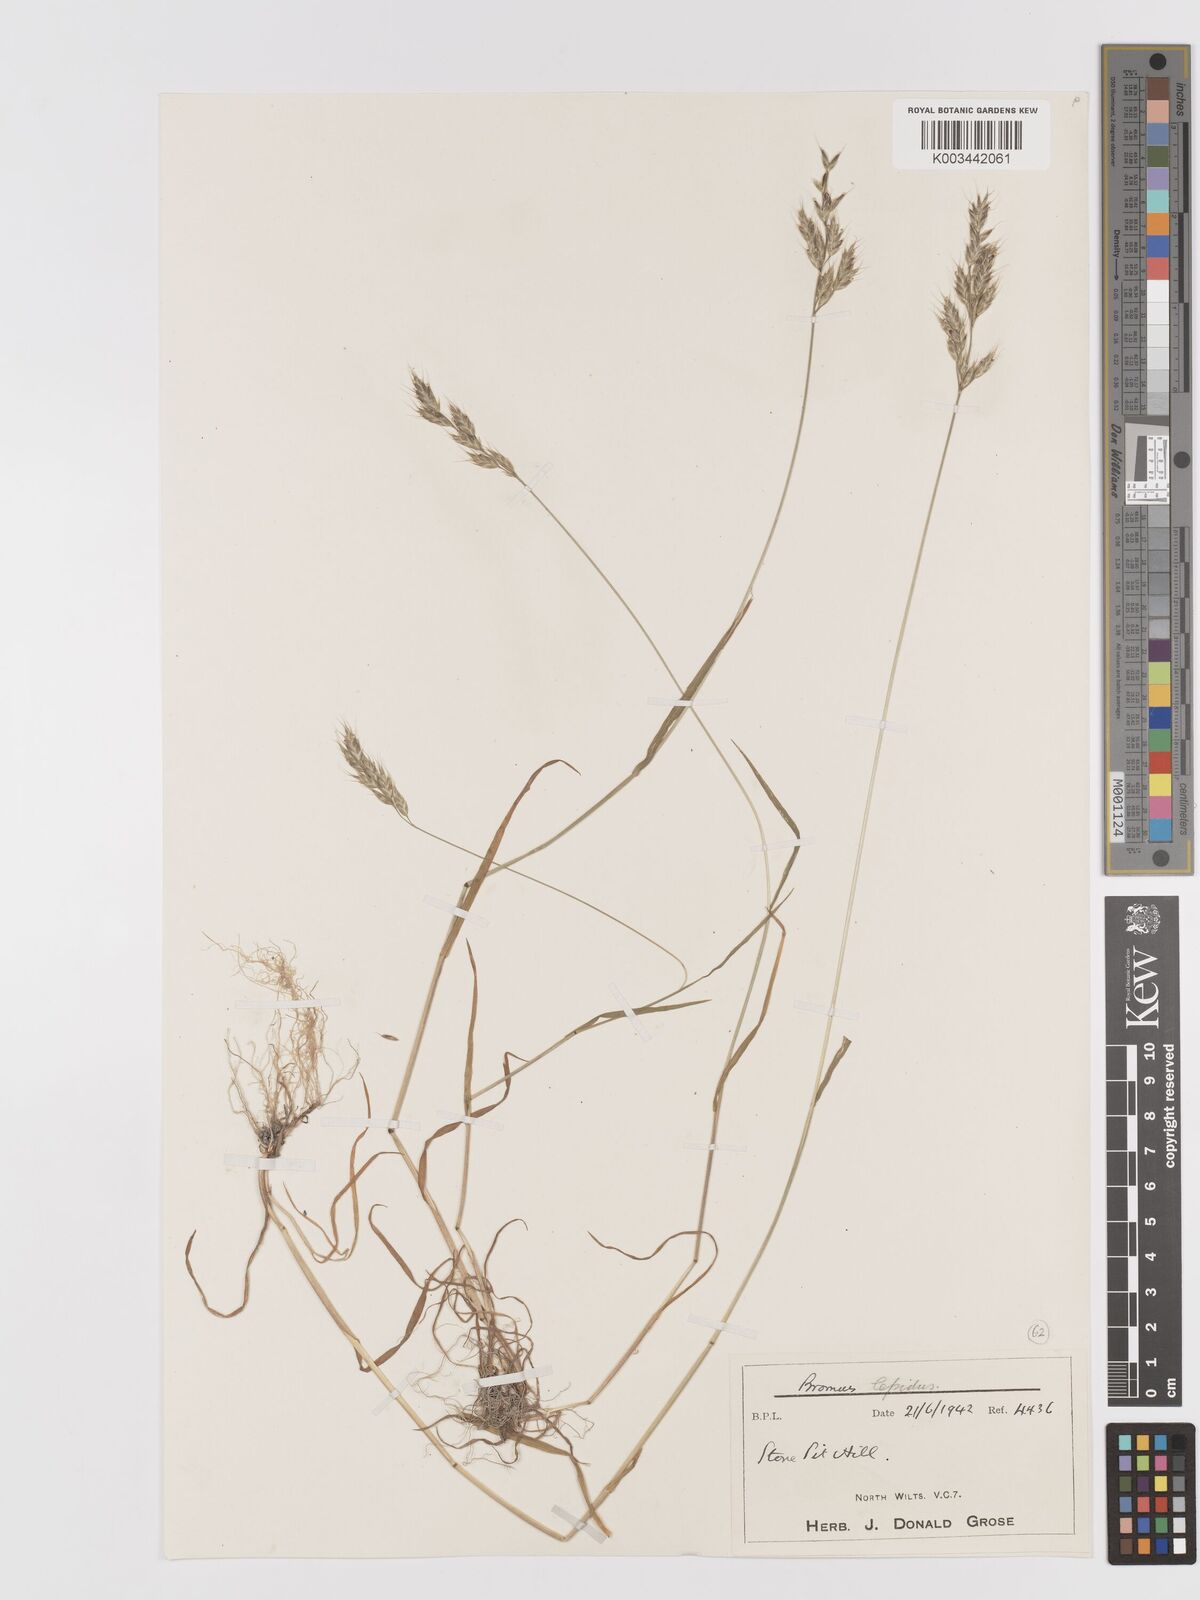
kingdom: Plantae
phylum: Tracheophyta
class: Liliopsida
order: Poales
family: Poaceae
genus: Bromus
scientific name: Bromus lepidus
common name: Slender soft-brome
